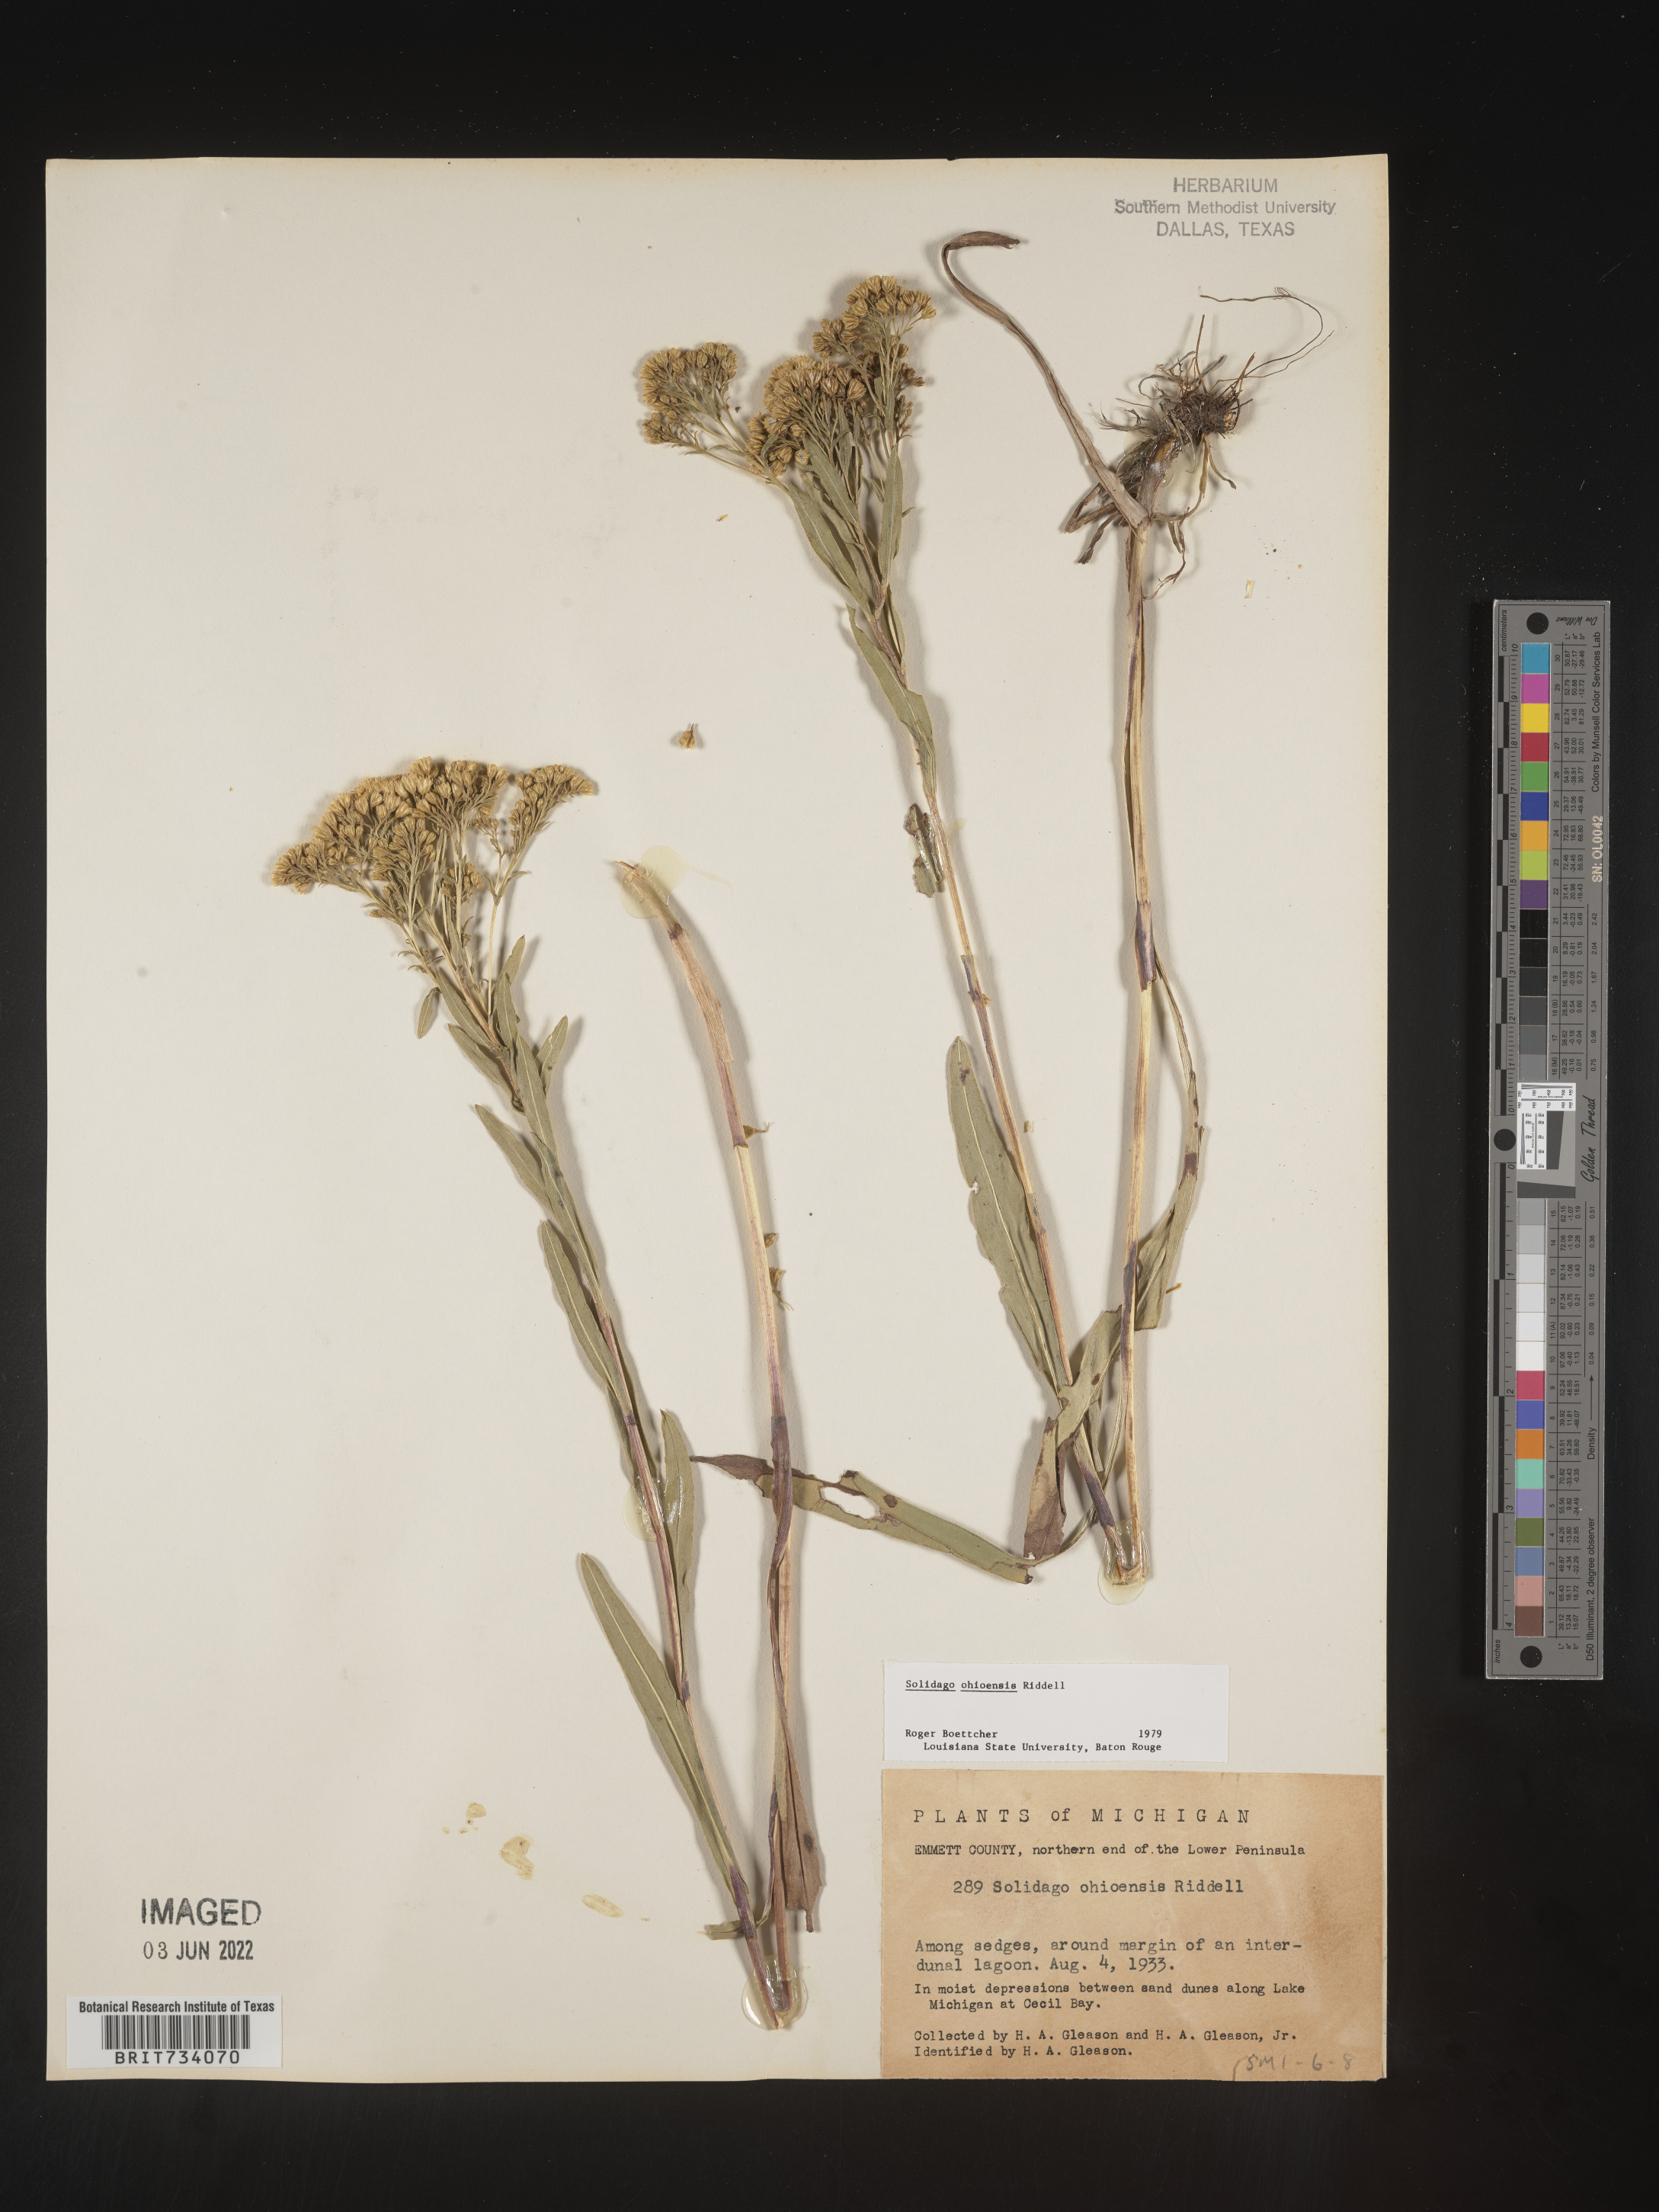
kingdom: Plantae
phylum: Tracheophyta
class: Magnoliopsida
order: Asterales
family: Asteraceae
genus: Solidago
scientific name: Solidago ohioensis
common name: Ohio goldenrod
